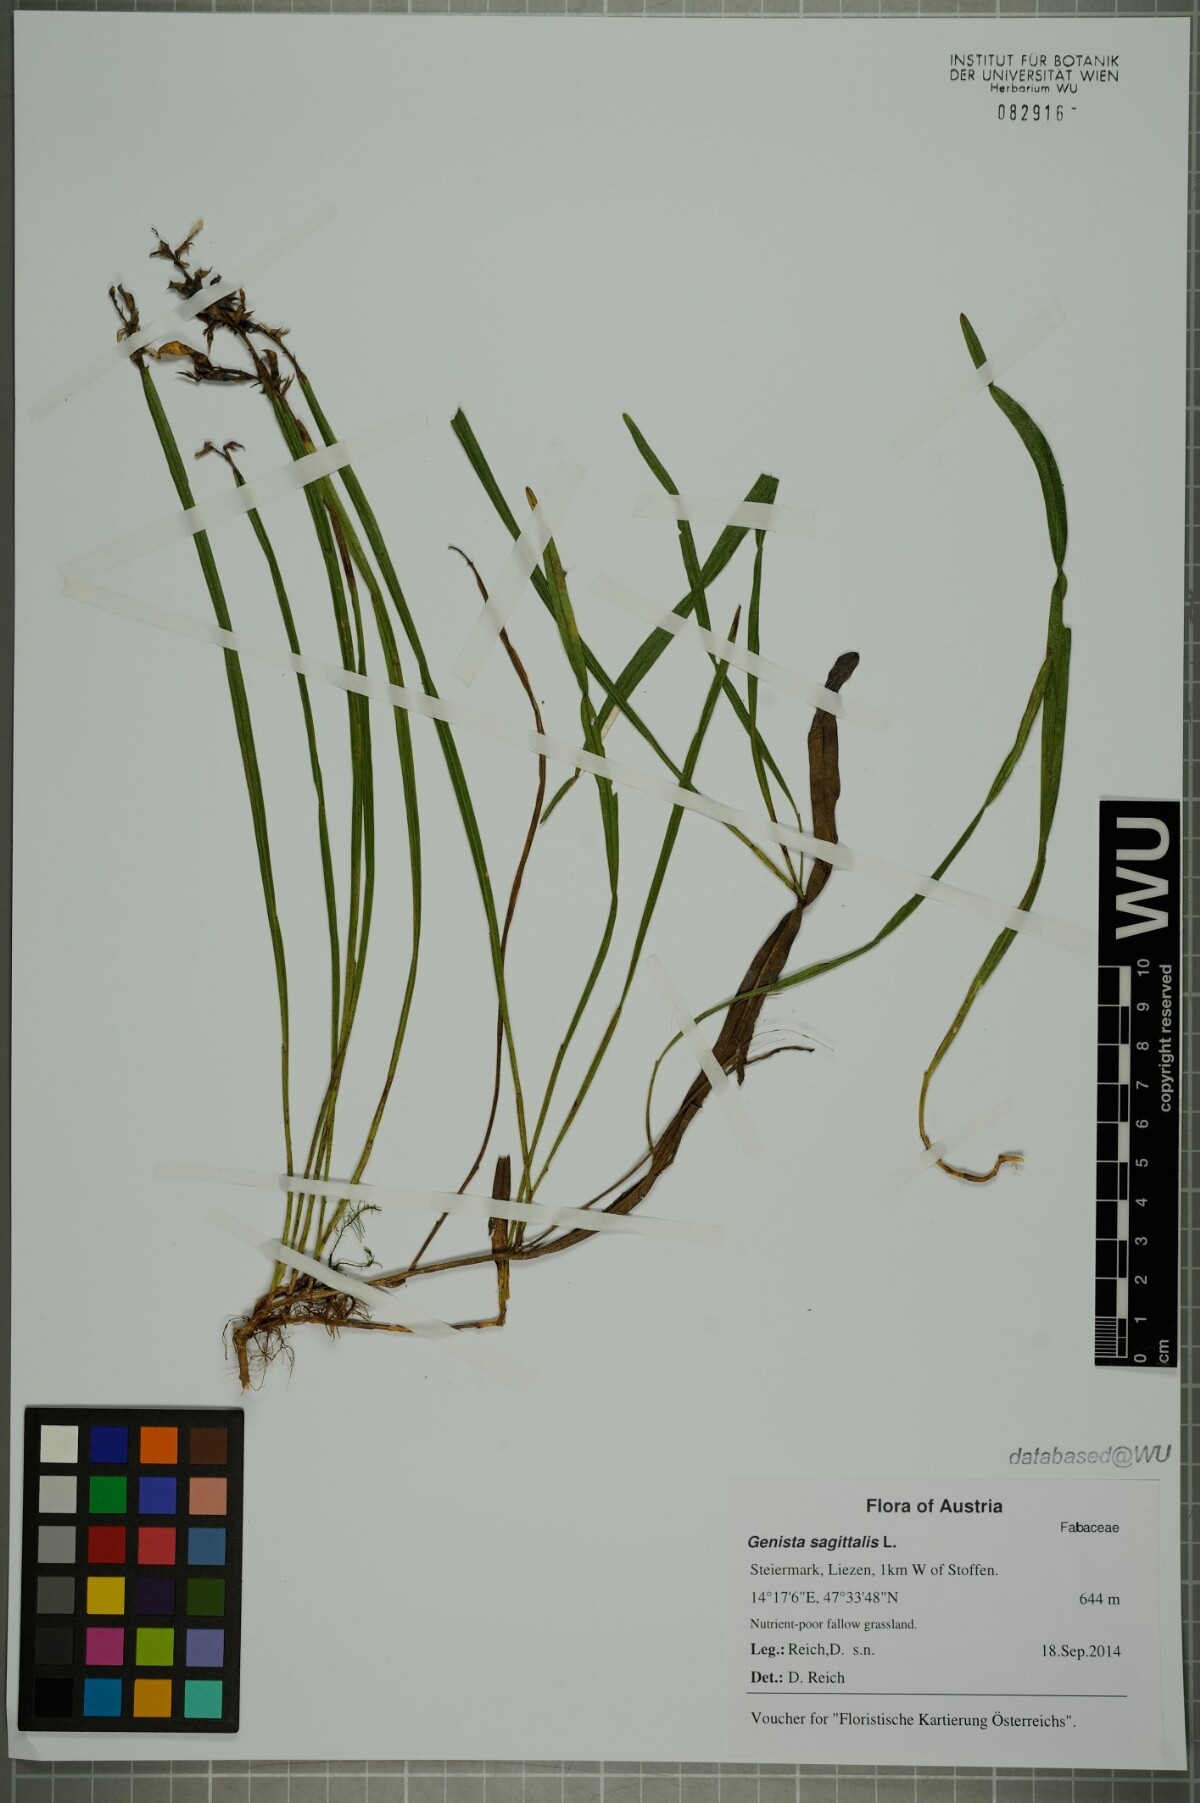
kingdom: Plantae
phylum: Tracheophyta
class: Magnoliopsida
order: Fabales
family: Fabaceae
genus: Genista
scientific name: Genista sagittalis
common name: Winged greenweed
